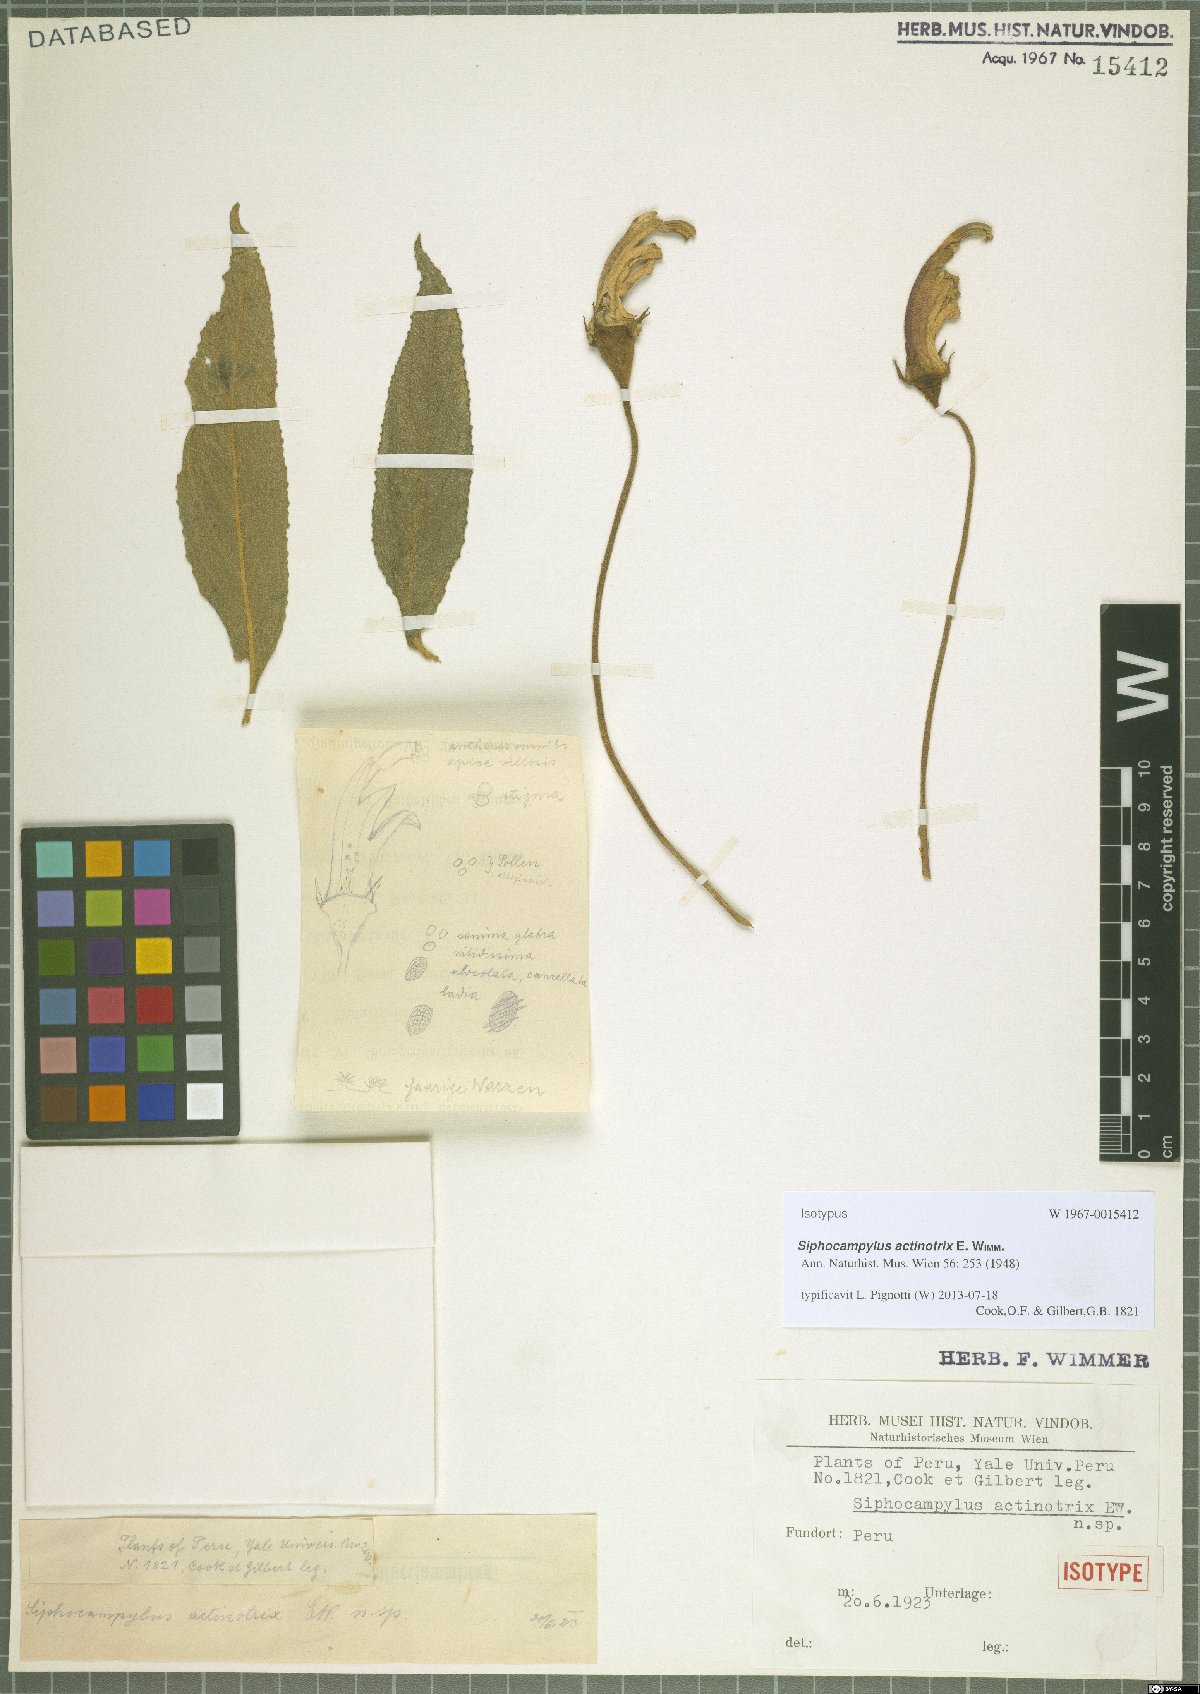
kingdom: Plantae
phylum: Tracheophyta
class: Magnoliopsida
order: Asterales
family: Campanulaceae
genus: Siphocampylus
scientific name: Siphocampylus actinothrix
